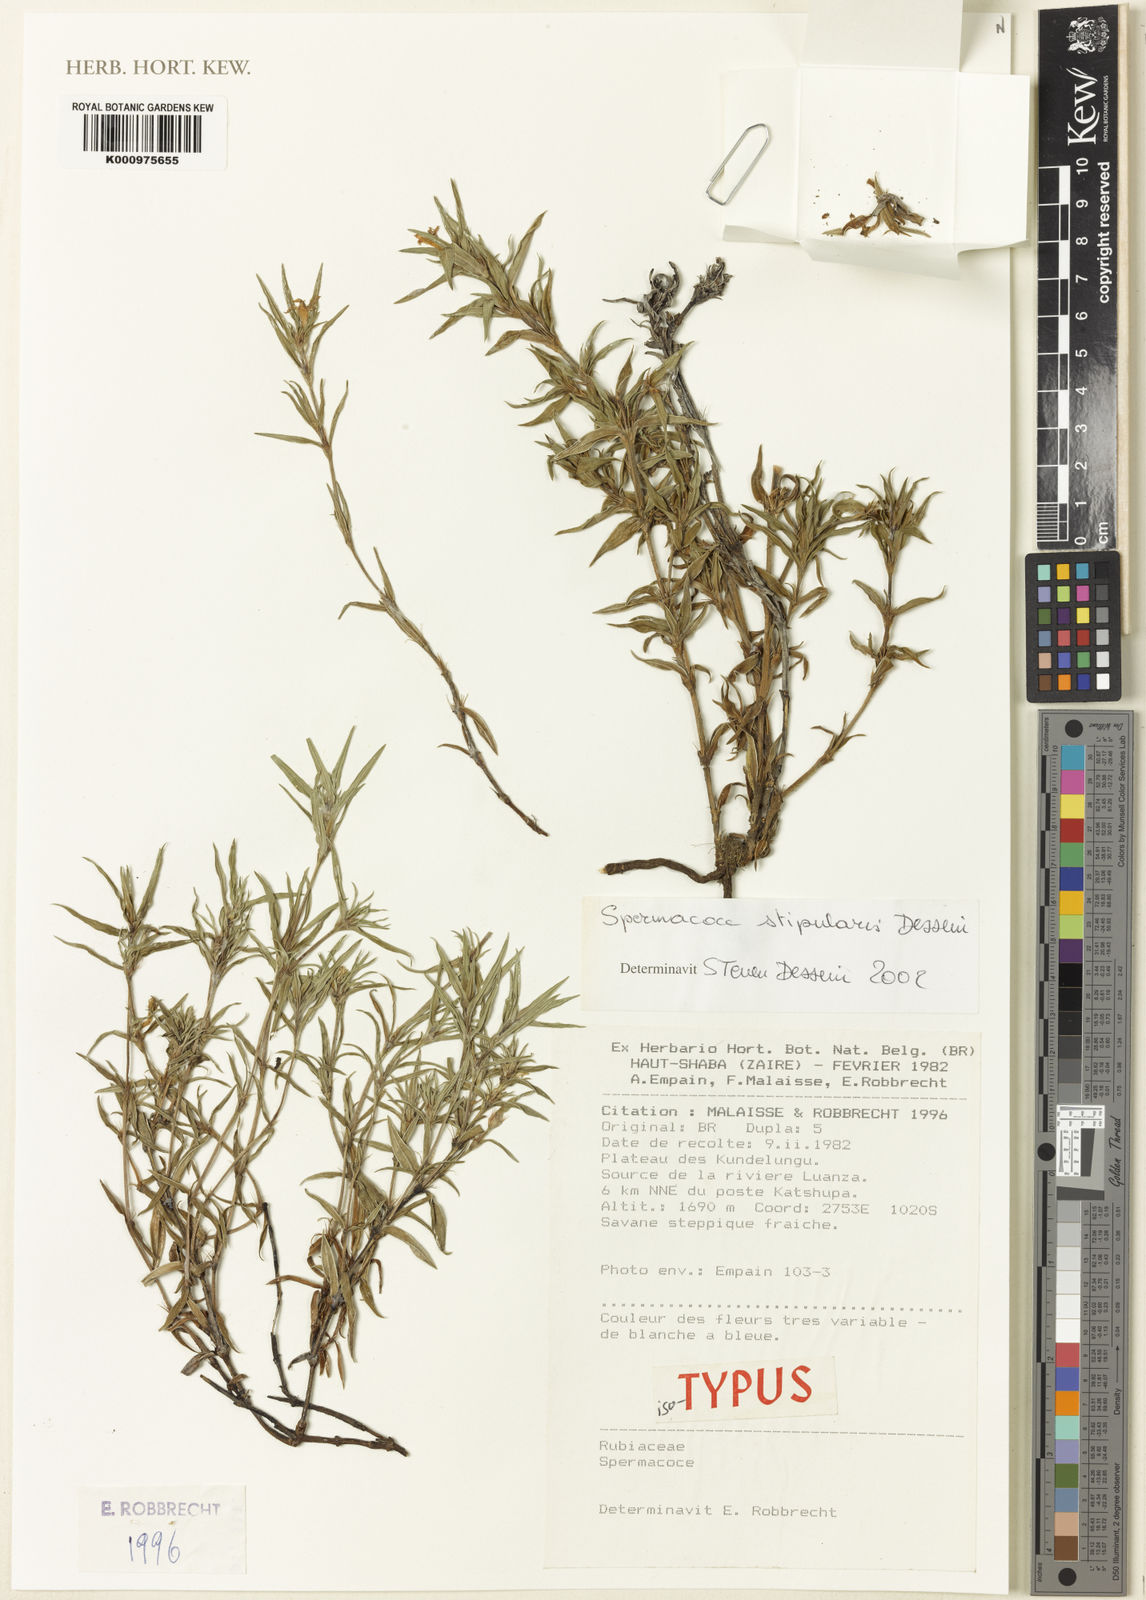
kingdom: Plantae
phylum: Tracheophyta
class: Magnoliopsida
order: Gentianales
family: Rubiaceae
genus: Spermacoce
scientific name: Spermacoce stipularis
